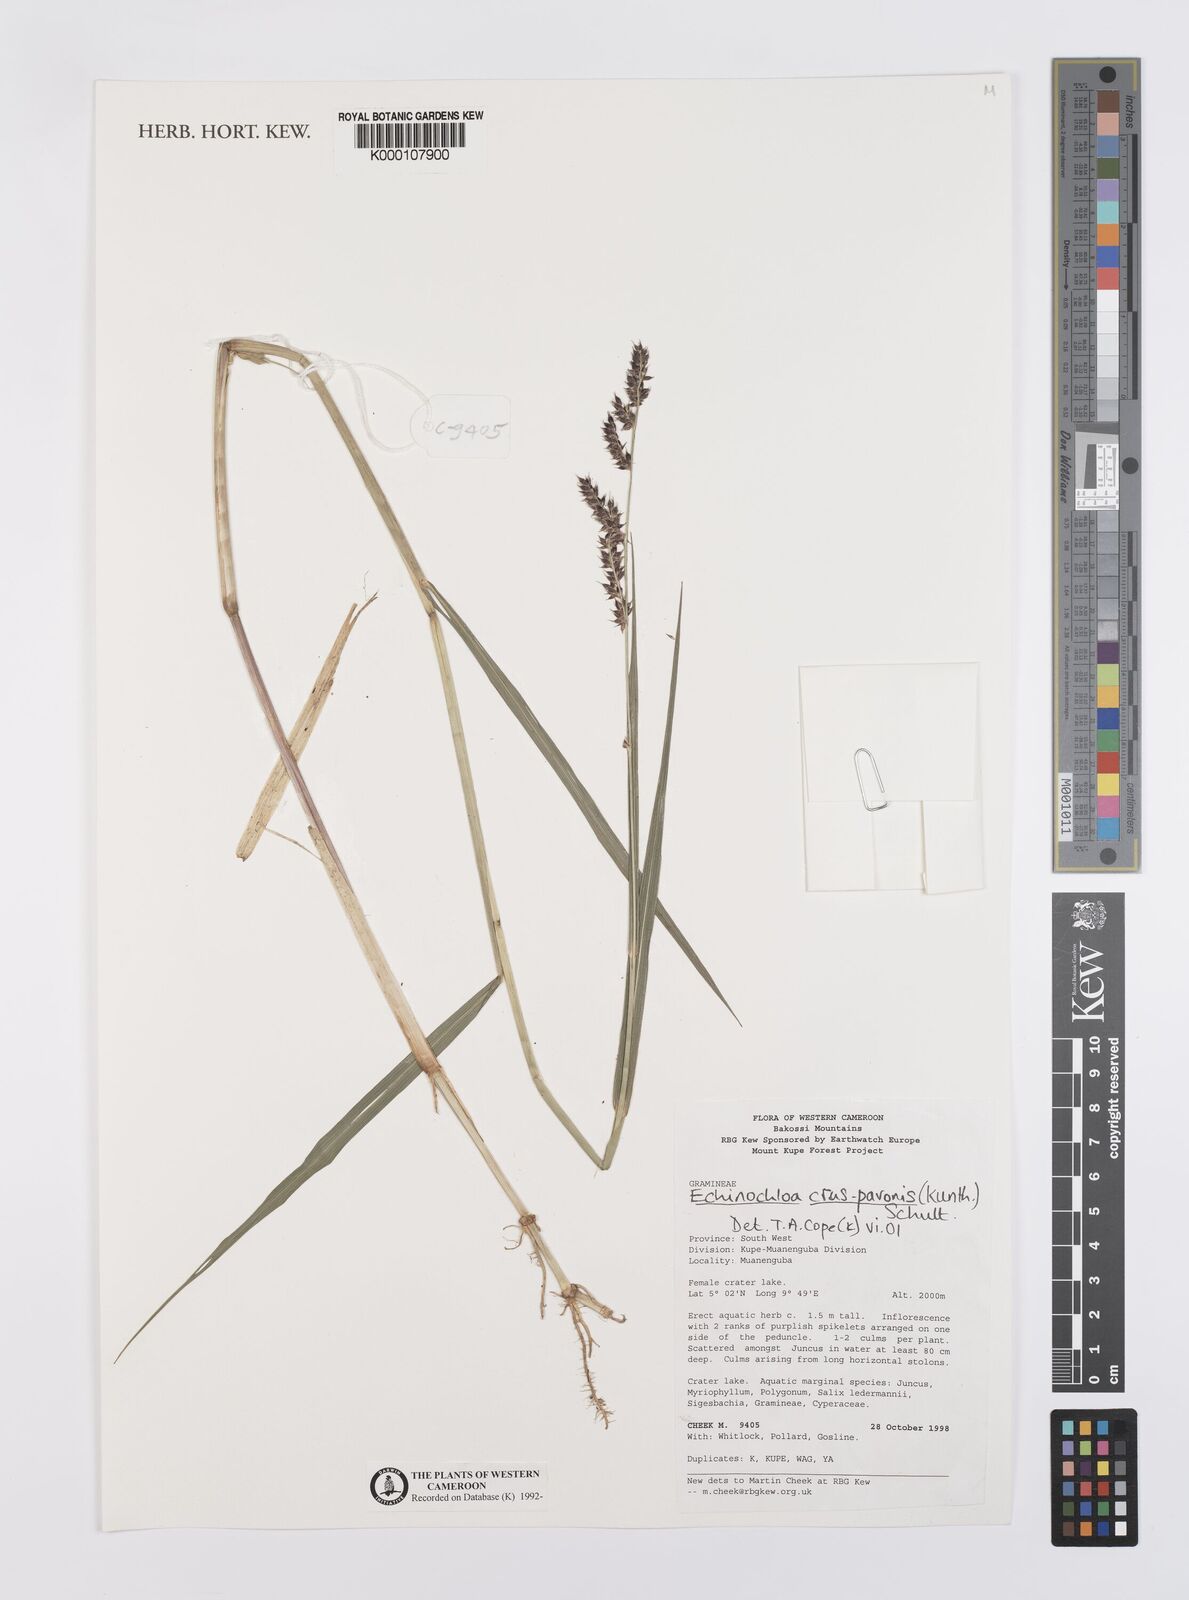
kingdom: Plantae
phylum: Tracheophyta
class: Liliopsida
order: Poales
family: Poaceae
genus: Echinochloa
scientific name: Echinochloa crus-pavonis
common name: Gulf cockspur grass
